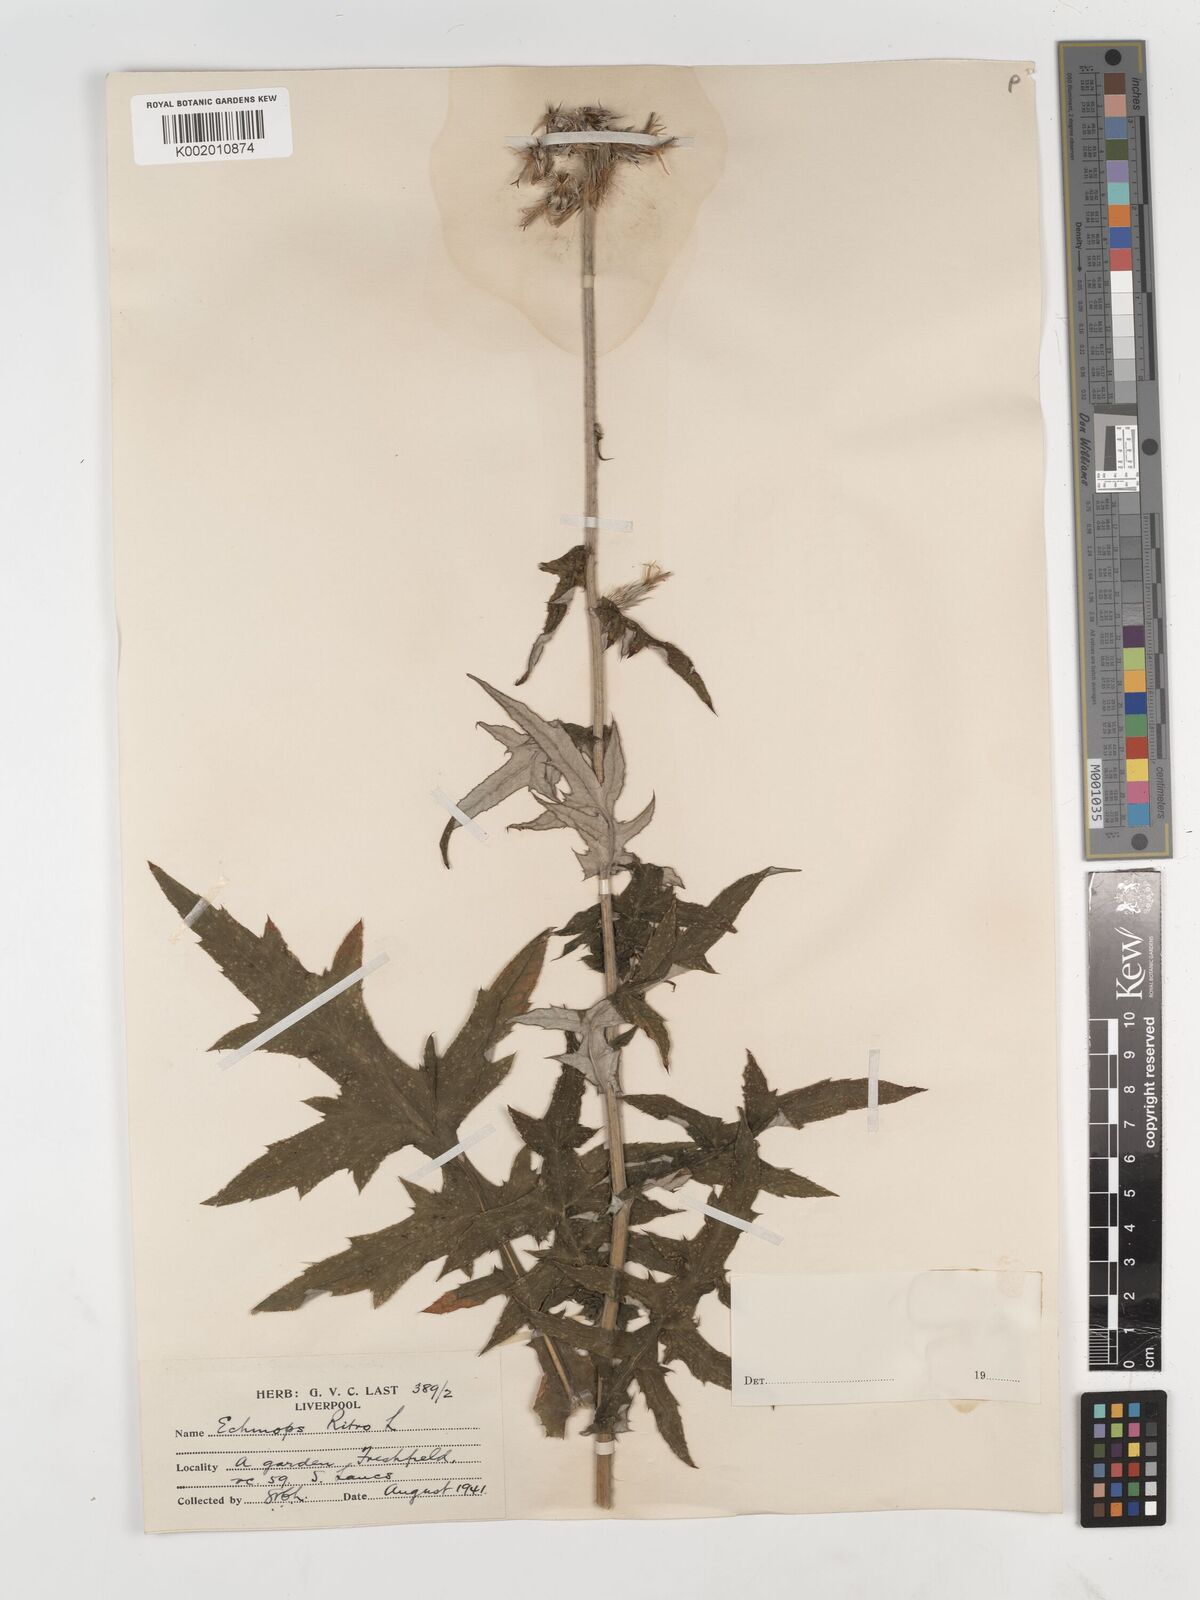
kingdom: Plantae
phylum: Tracheophyta
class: Magnoliopsida
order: Asterales
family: Asteraceae
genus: Echinops
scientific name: Echinops bannaticus
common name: Blue globe-thistle
